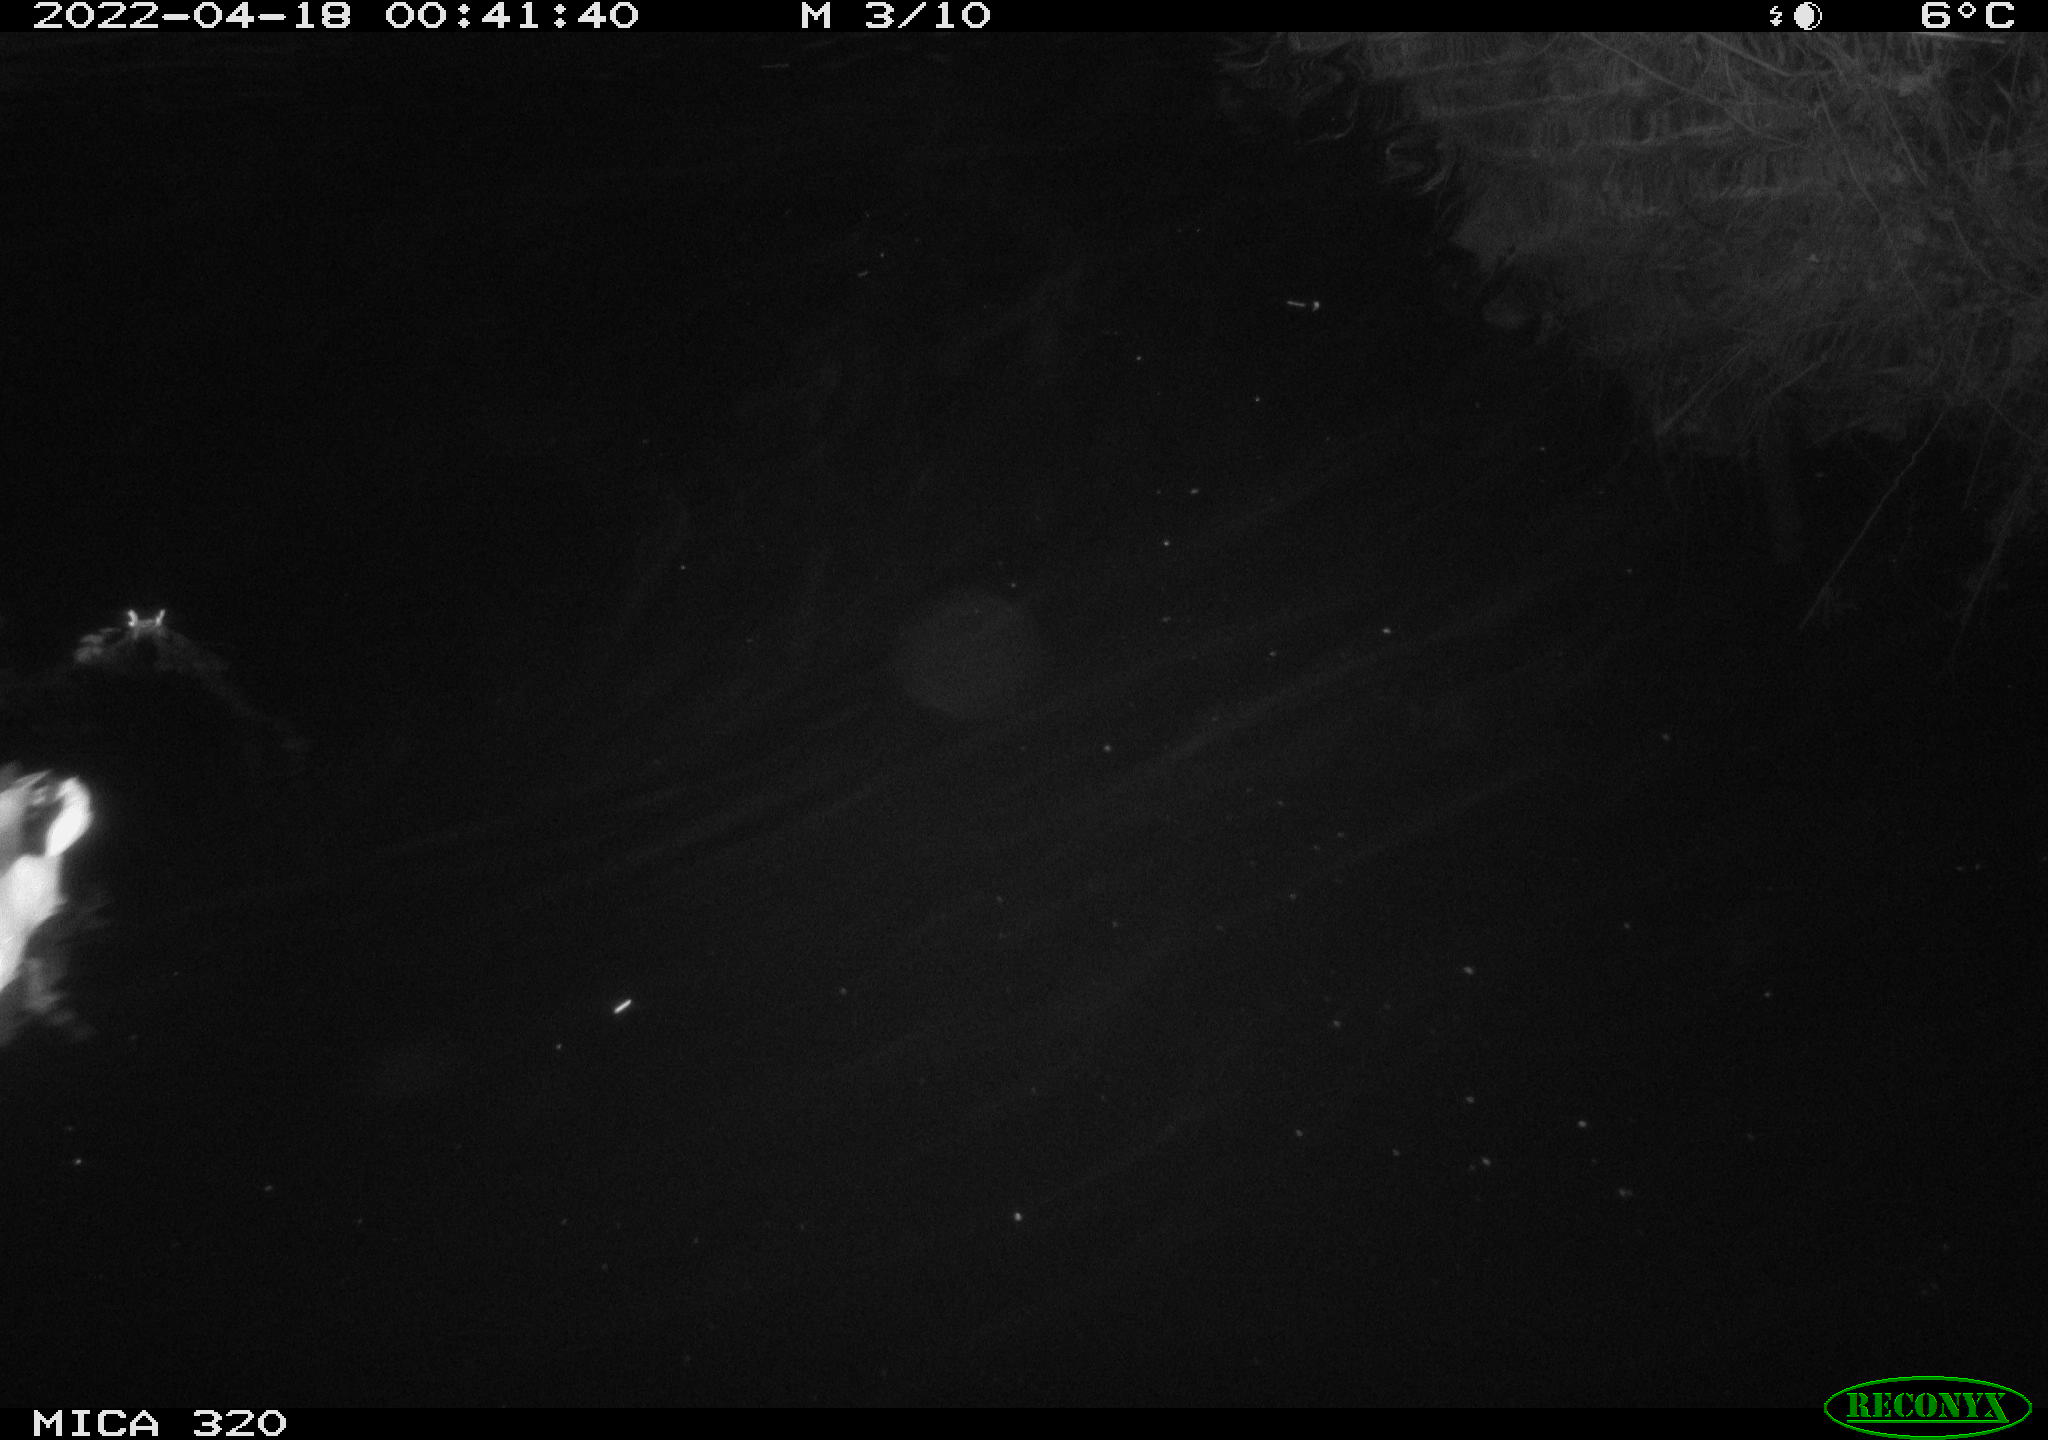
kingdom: Animalia
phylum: Chordata
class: Aves
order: Anseriformes
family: Anatidae
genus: Anas
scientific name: Anas platyrhynchos
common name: Mallard
